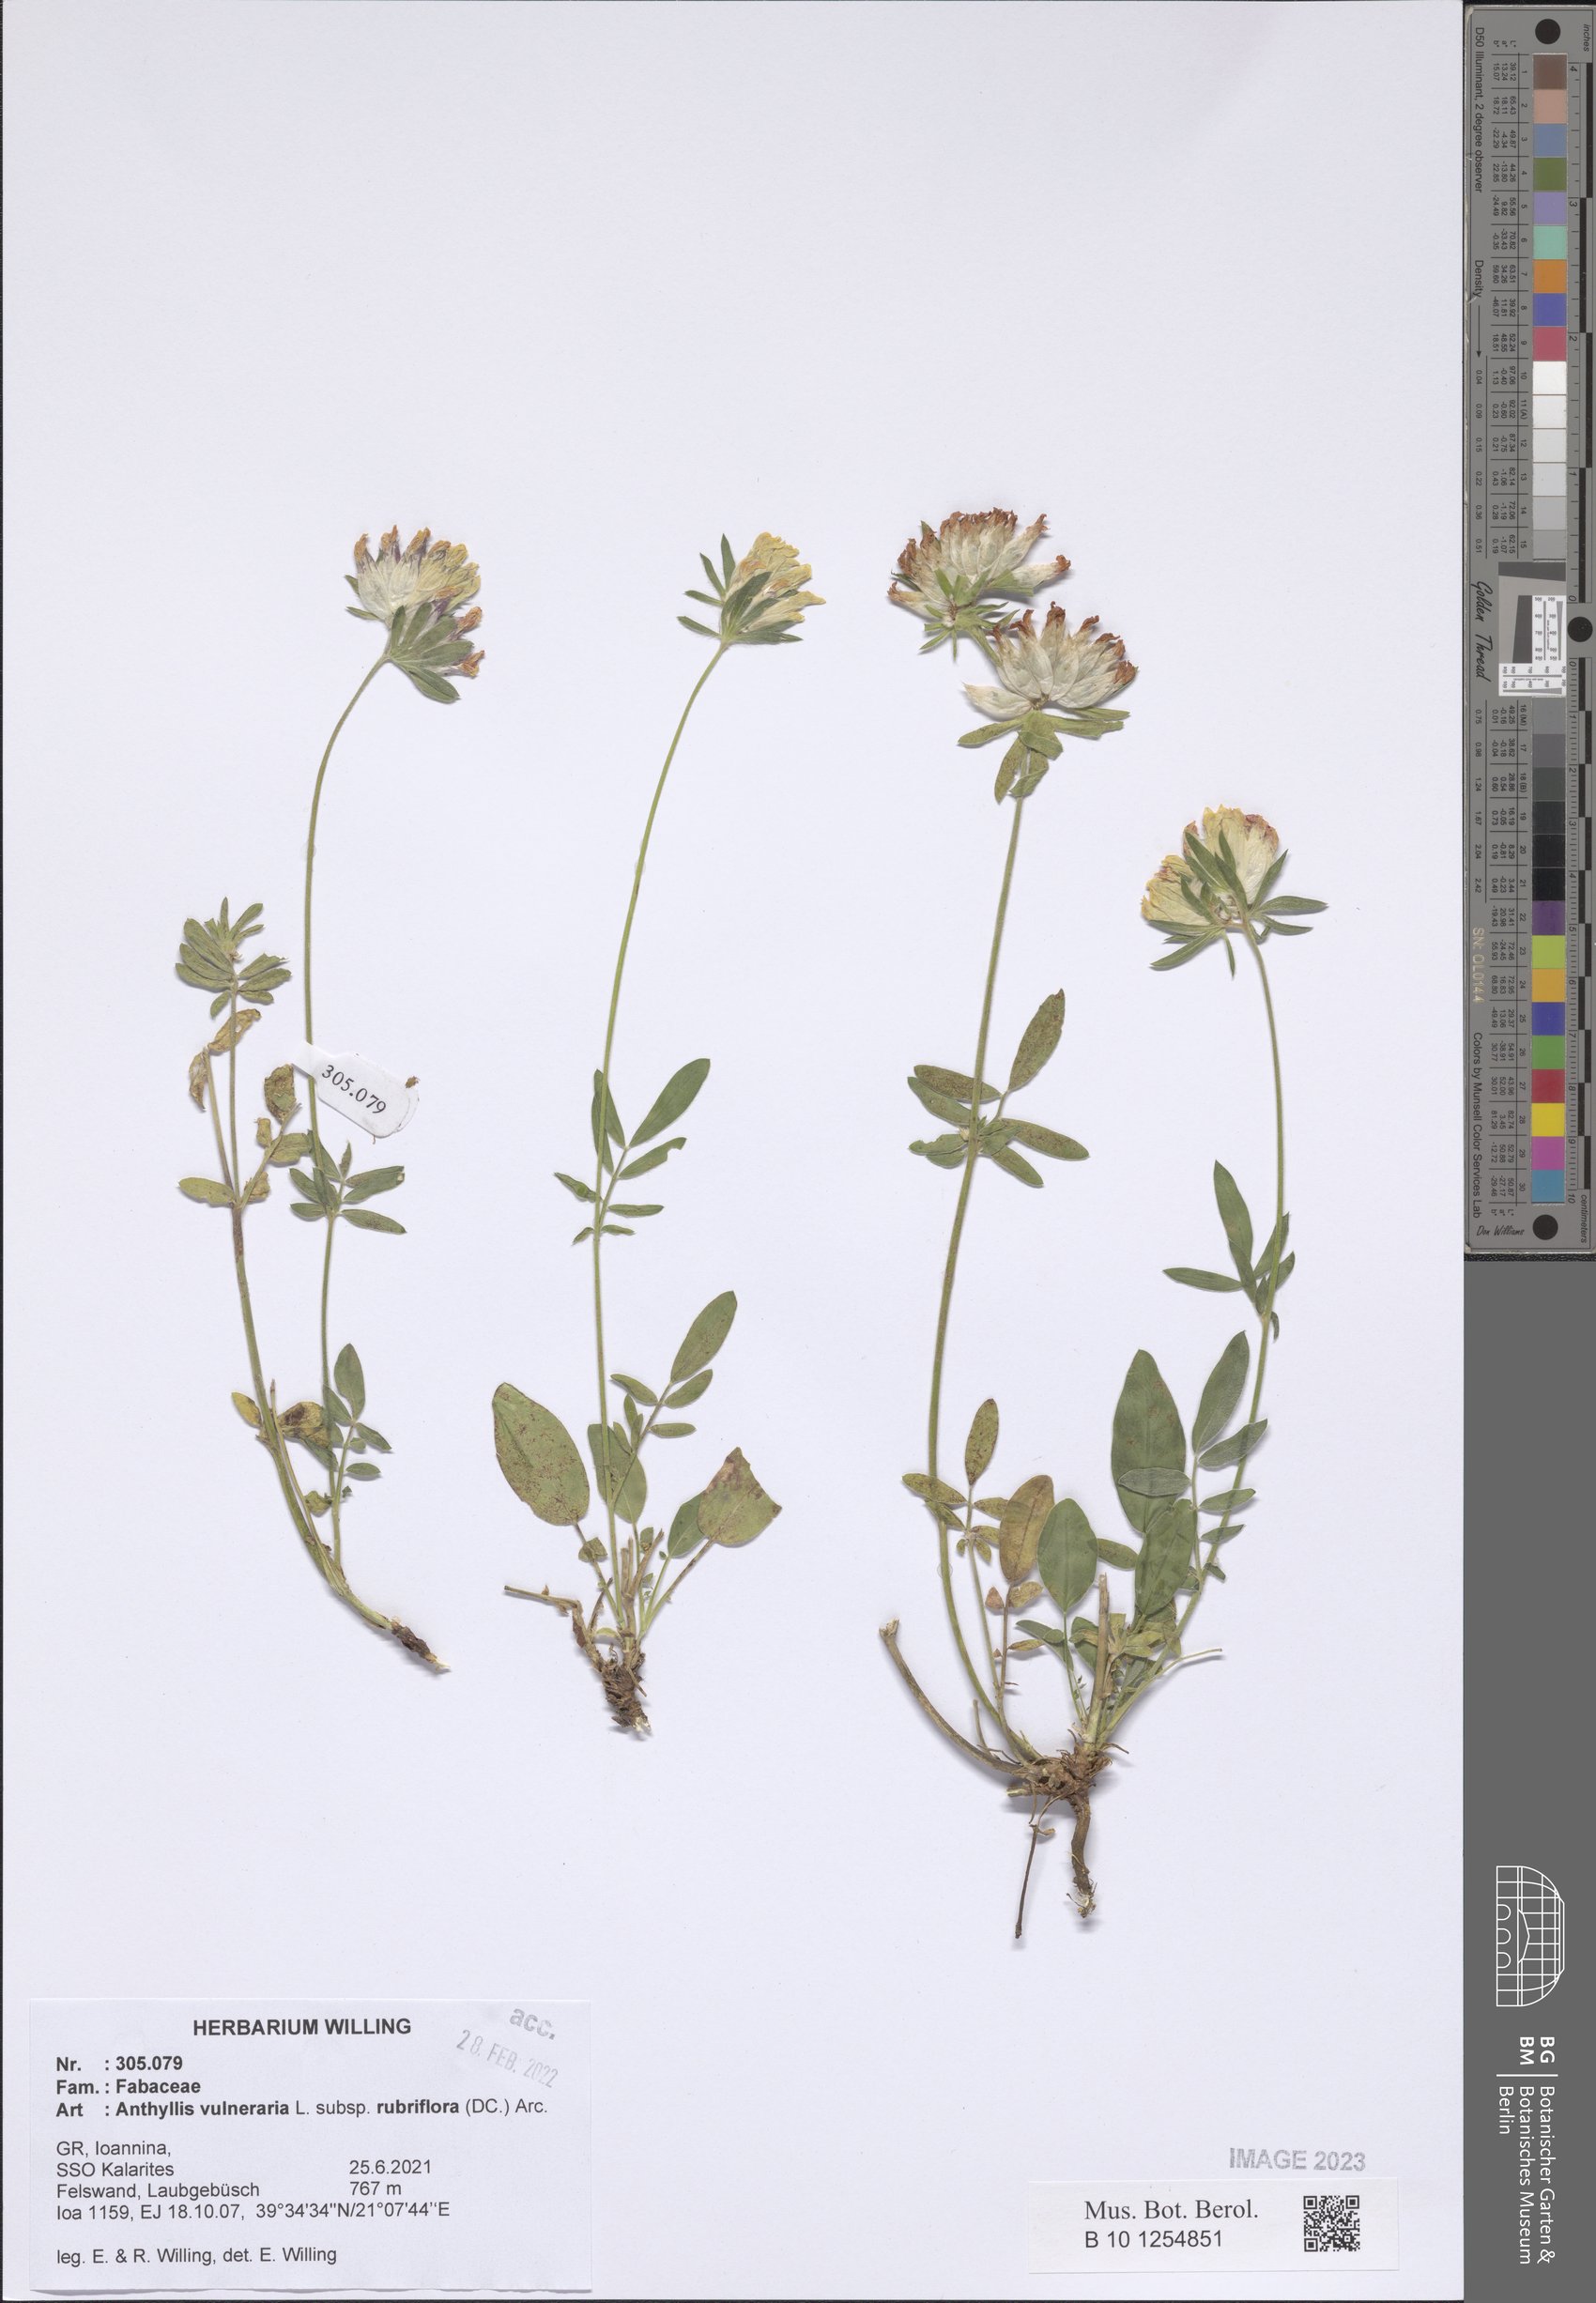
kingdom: Plantae
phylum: Tracheophyta
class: Magnoliopsida
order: Fabales
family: Fabaceae
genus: Anthyllis
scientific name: Anthyllis vulneraria
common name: Kidney vetch
